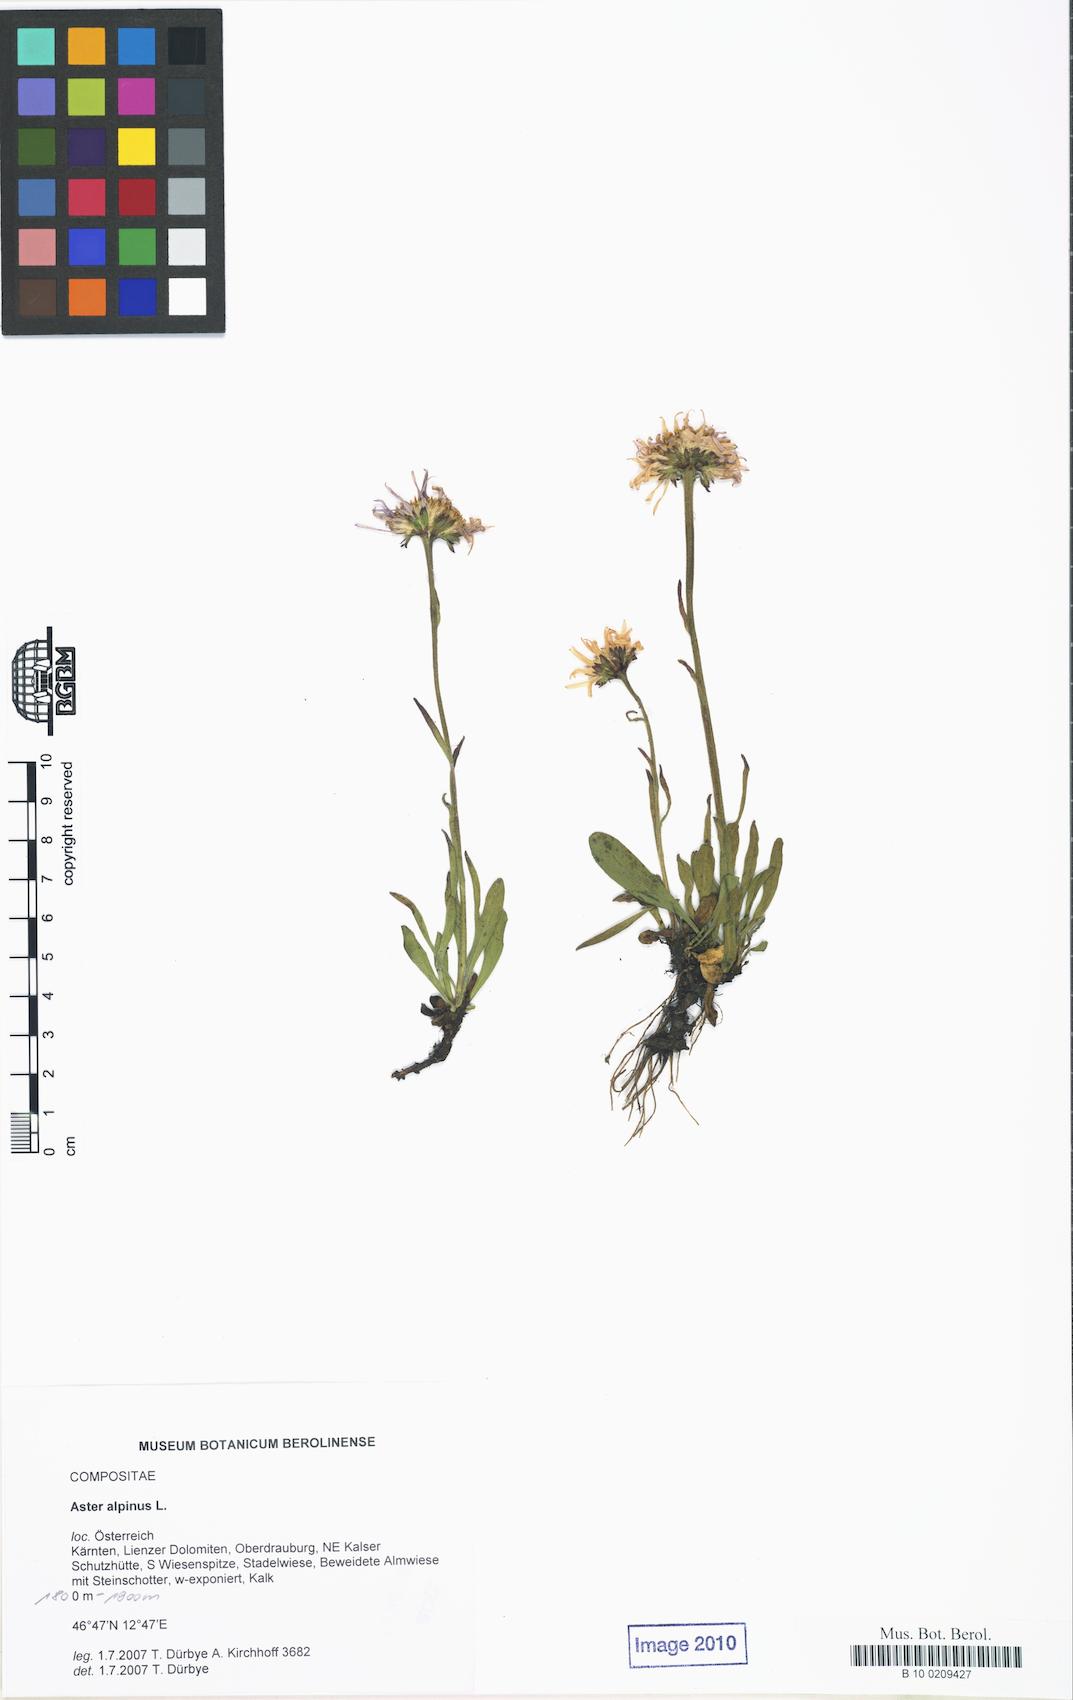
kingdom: Plantae
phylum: Tracheophyta
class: Magnoliopsida
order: Asterales
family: Asteraceae
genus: Aster
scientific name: Aster alpinus
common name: Alpine aster
